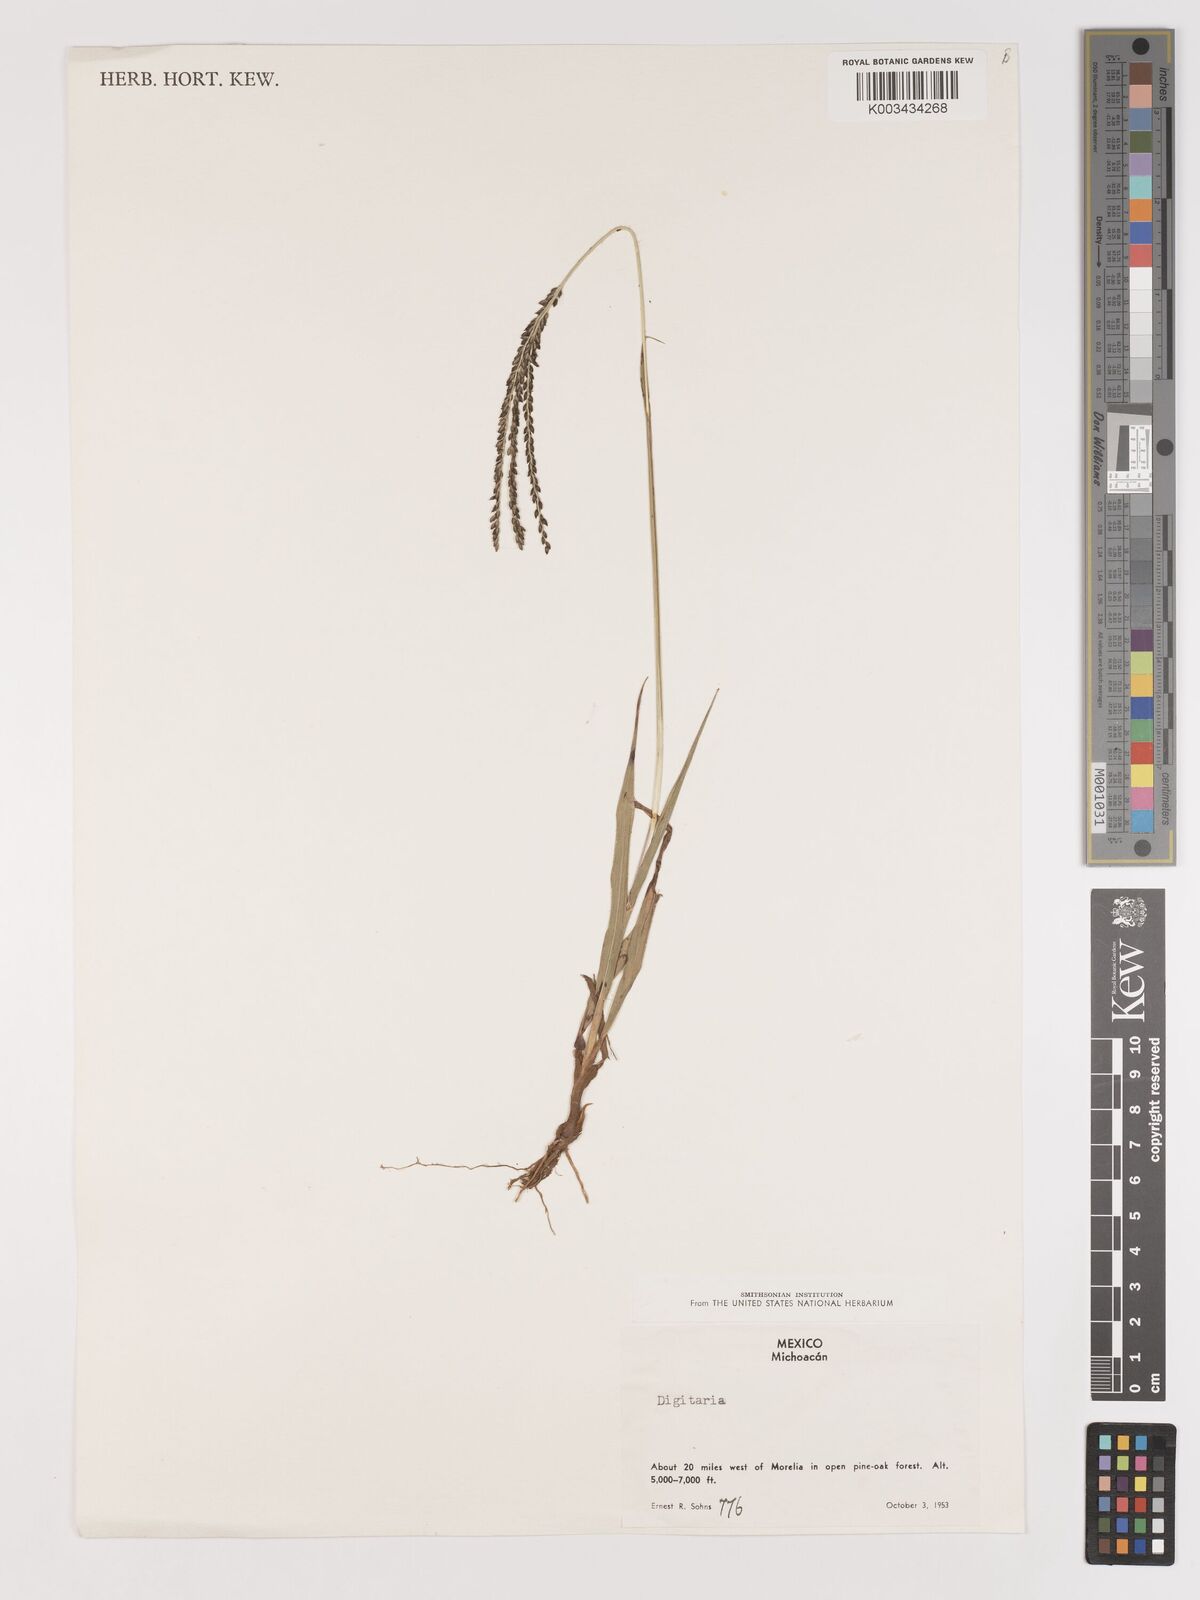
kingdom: Plantae
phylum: Tracheophyta
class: Liliopsida
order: Poales
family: Poaceae
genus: Digitaria
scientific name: Digitaria badia
